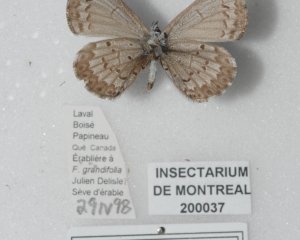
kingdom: Animalia
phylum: Arthropoda
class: Insecta
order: Lepidoptera
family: Lycaenidae
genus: Celastrina
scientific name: Celastrina serotina
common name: Cherry Gall Azure
